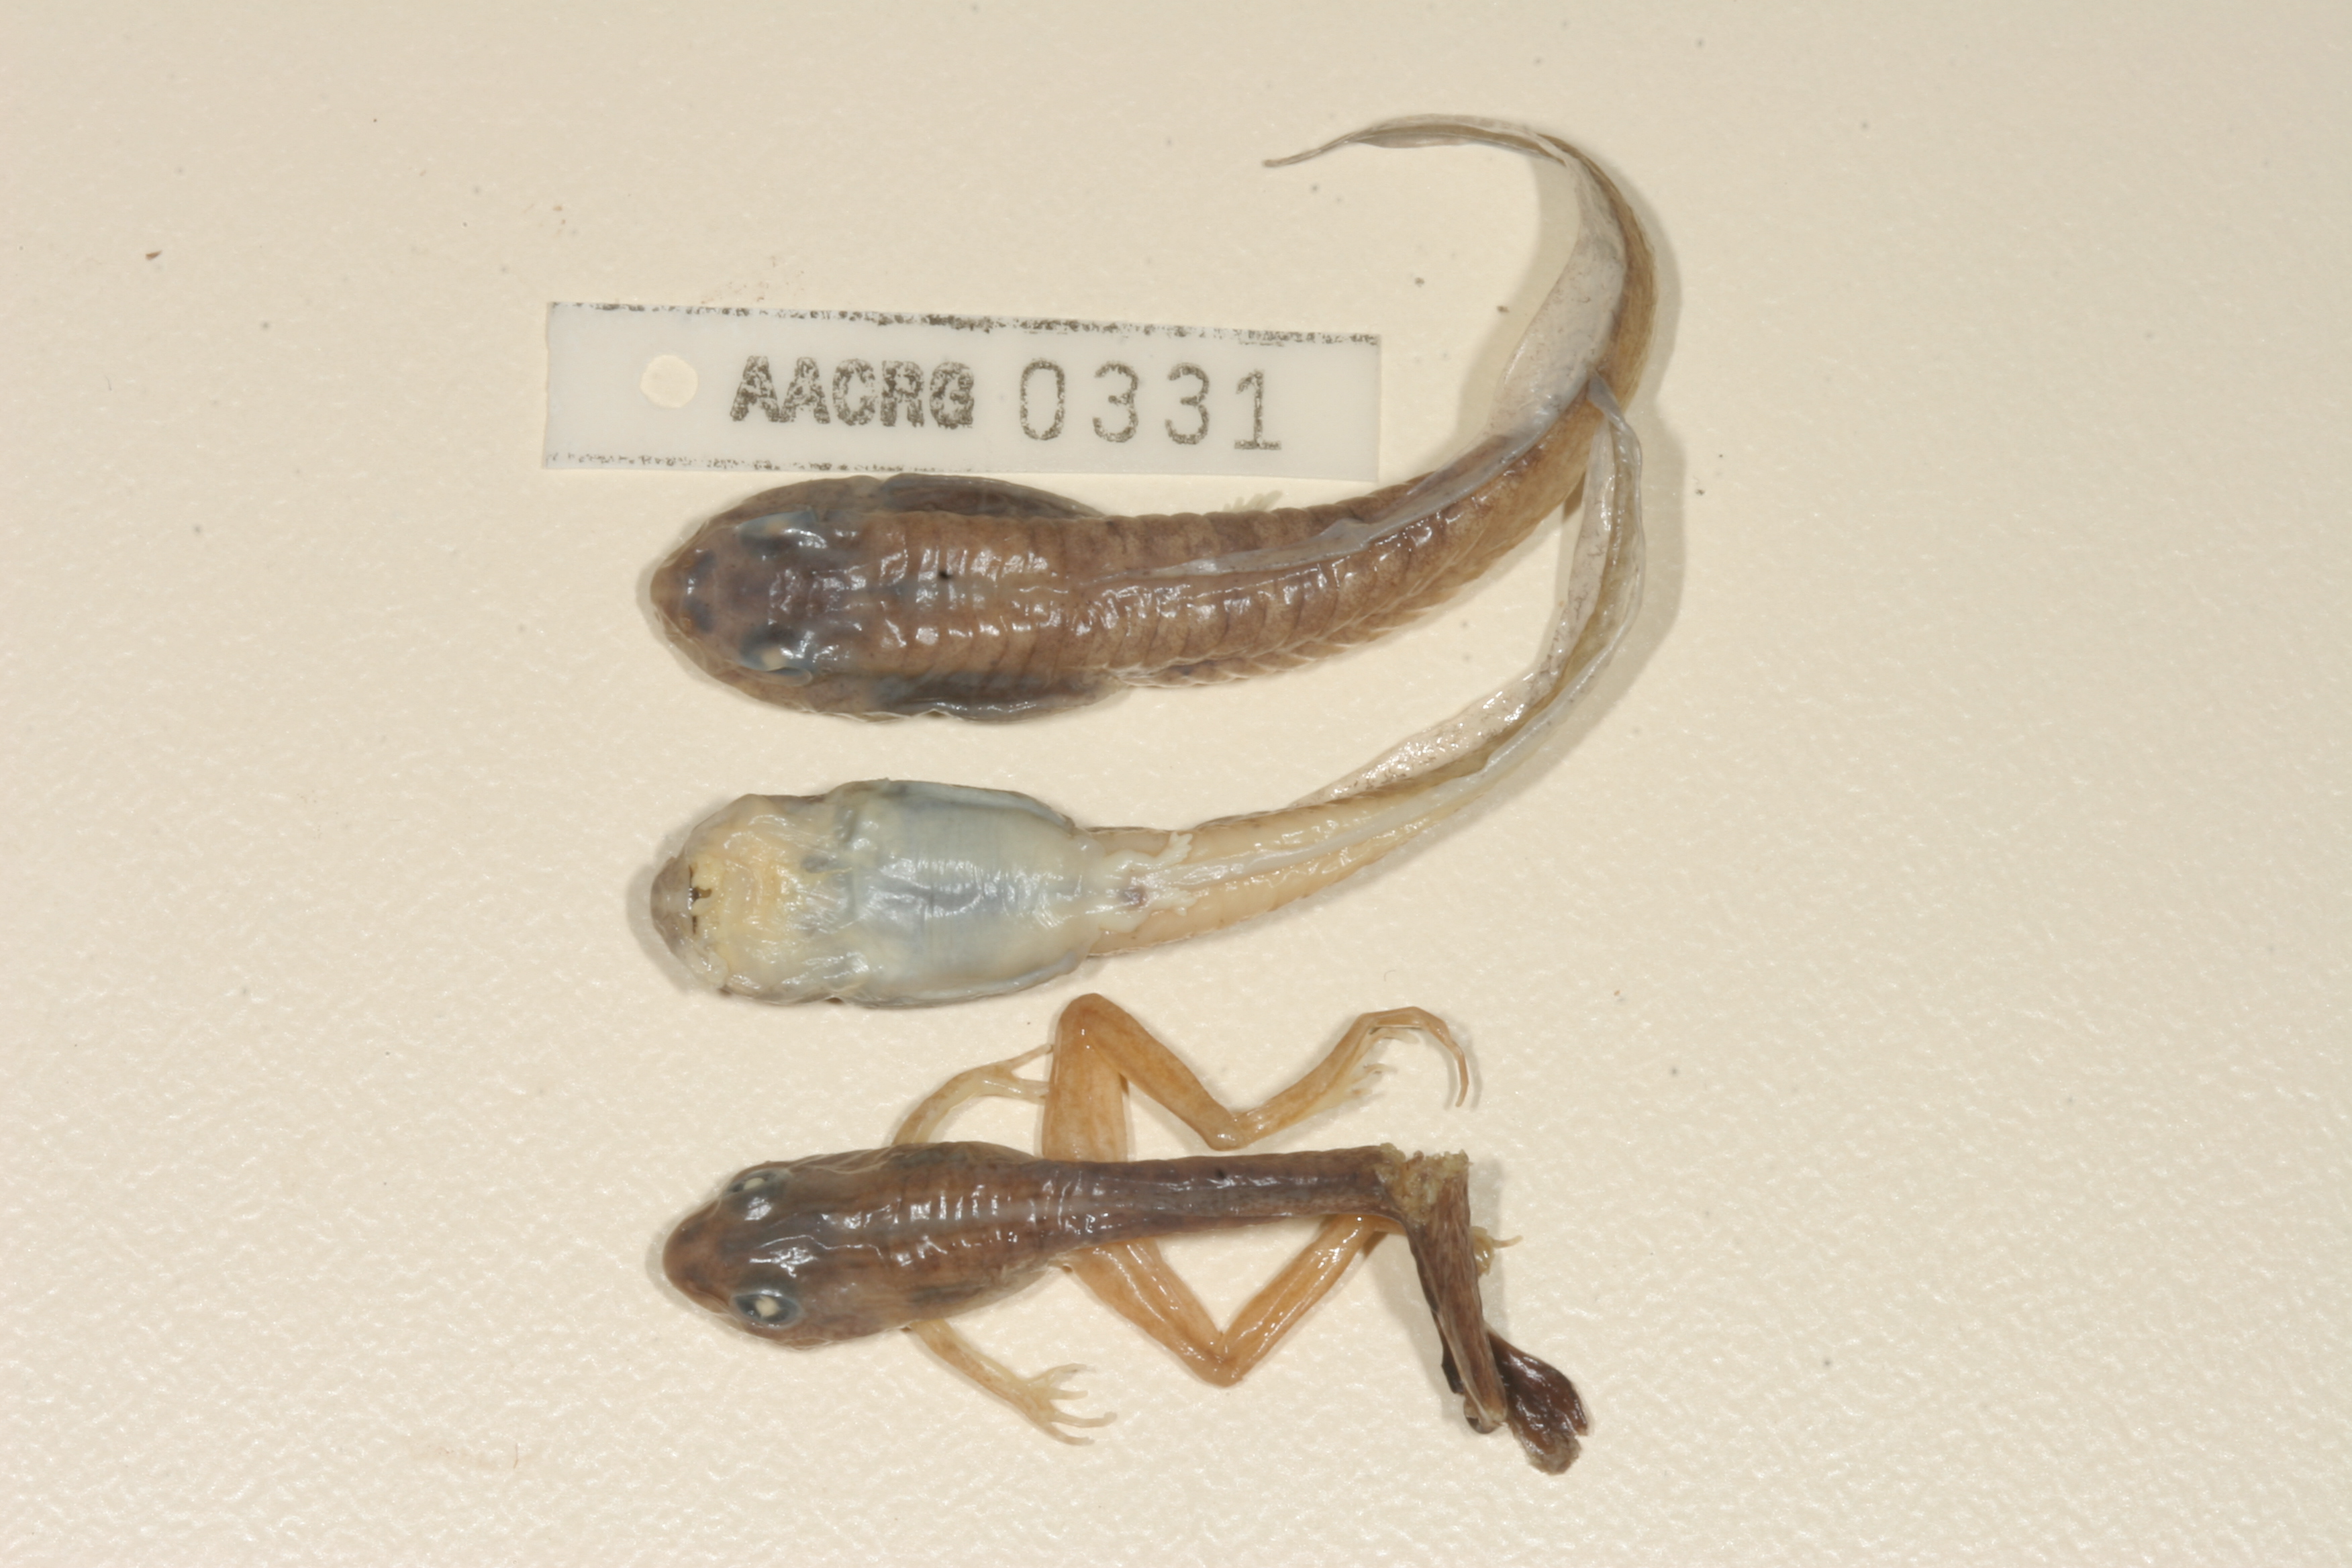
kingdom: Animalia
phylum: Chordata
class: Amphibia
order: Anura
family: Pyxicephalidae
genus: Strongylopus
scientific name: Strongylopus fasciatus
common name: Striped stream frog
